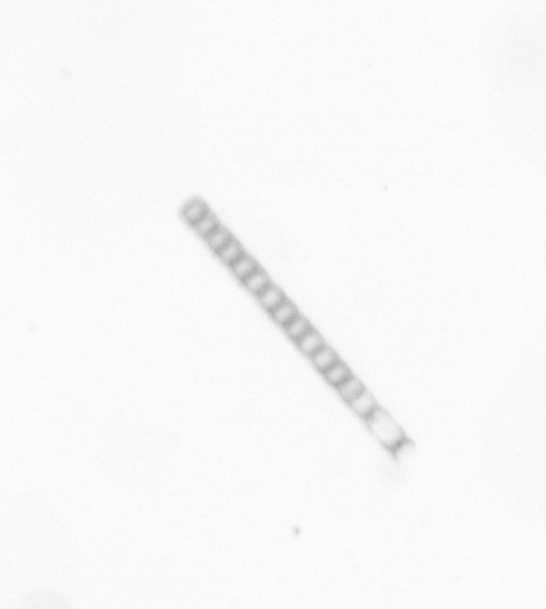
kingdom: Chromista
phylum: Ochrophyta
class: Bacillariophyceae
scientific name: Bacillariophyceae
